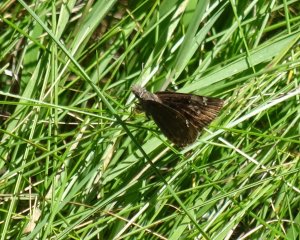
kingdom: Animalia
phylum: Arthropoda
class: Insecta
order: Lepidoptera
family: Hesperiidae
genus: Gesta
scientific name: Gesta
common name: Wild Indigo Duskywing
